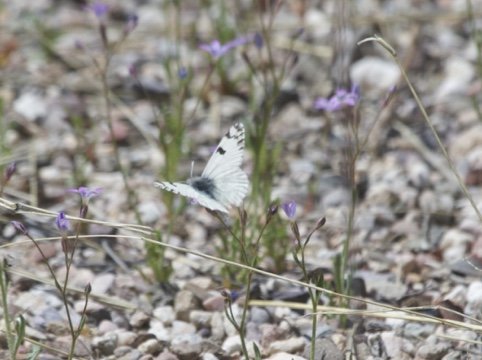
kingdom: Animalia
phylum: Arthropoda
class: Insecta
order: Lepidoptera
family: Pieridae
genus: Euchloe
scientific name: Euchloe lotta
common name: Desert Marble
